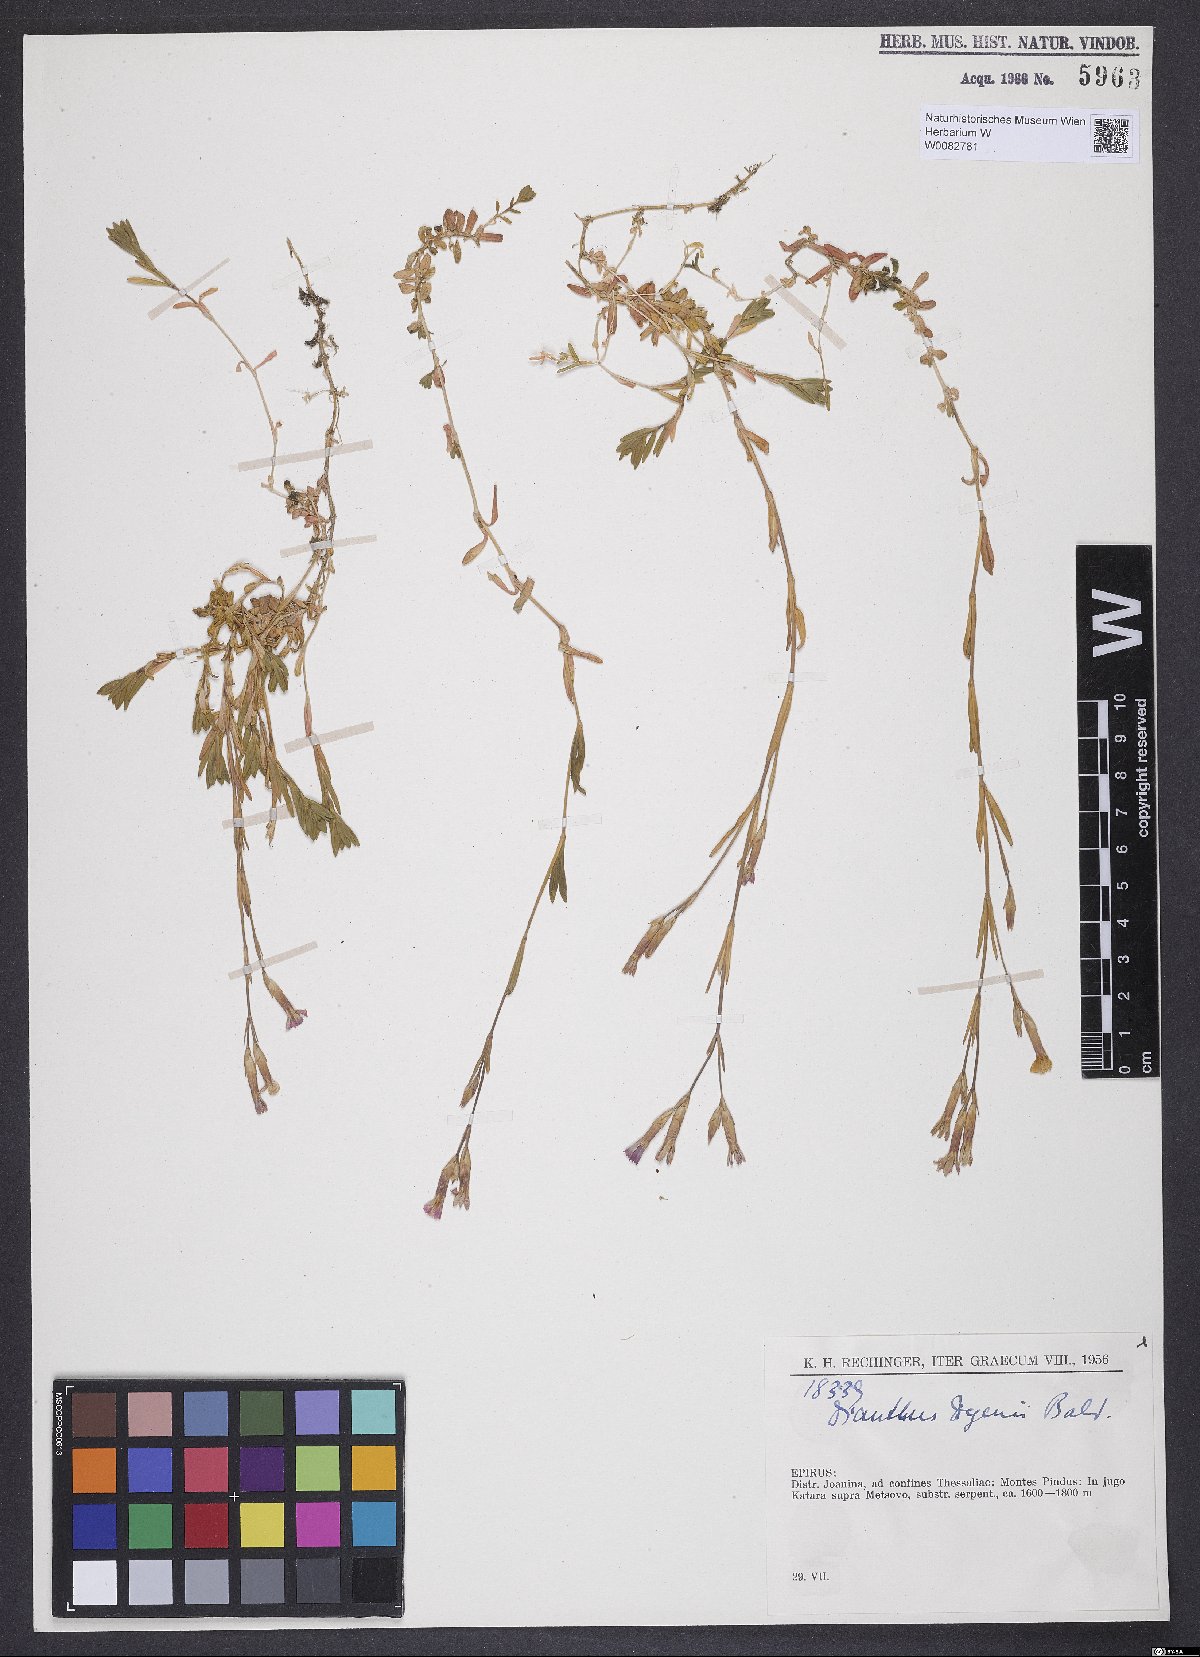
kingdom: Plantae
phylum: Tracheophyta
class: Magnoliopsida
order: Caryophyllales
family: Caryophyllaceae
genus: Dianthus
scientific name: Dianthus deltoides
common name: Maiden pink
